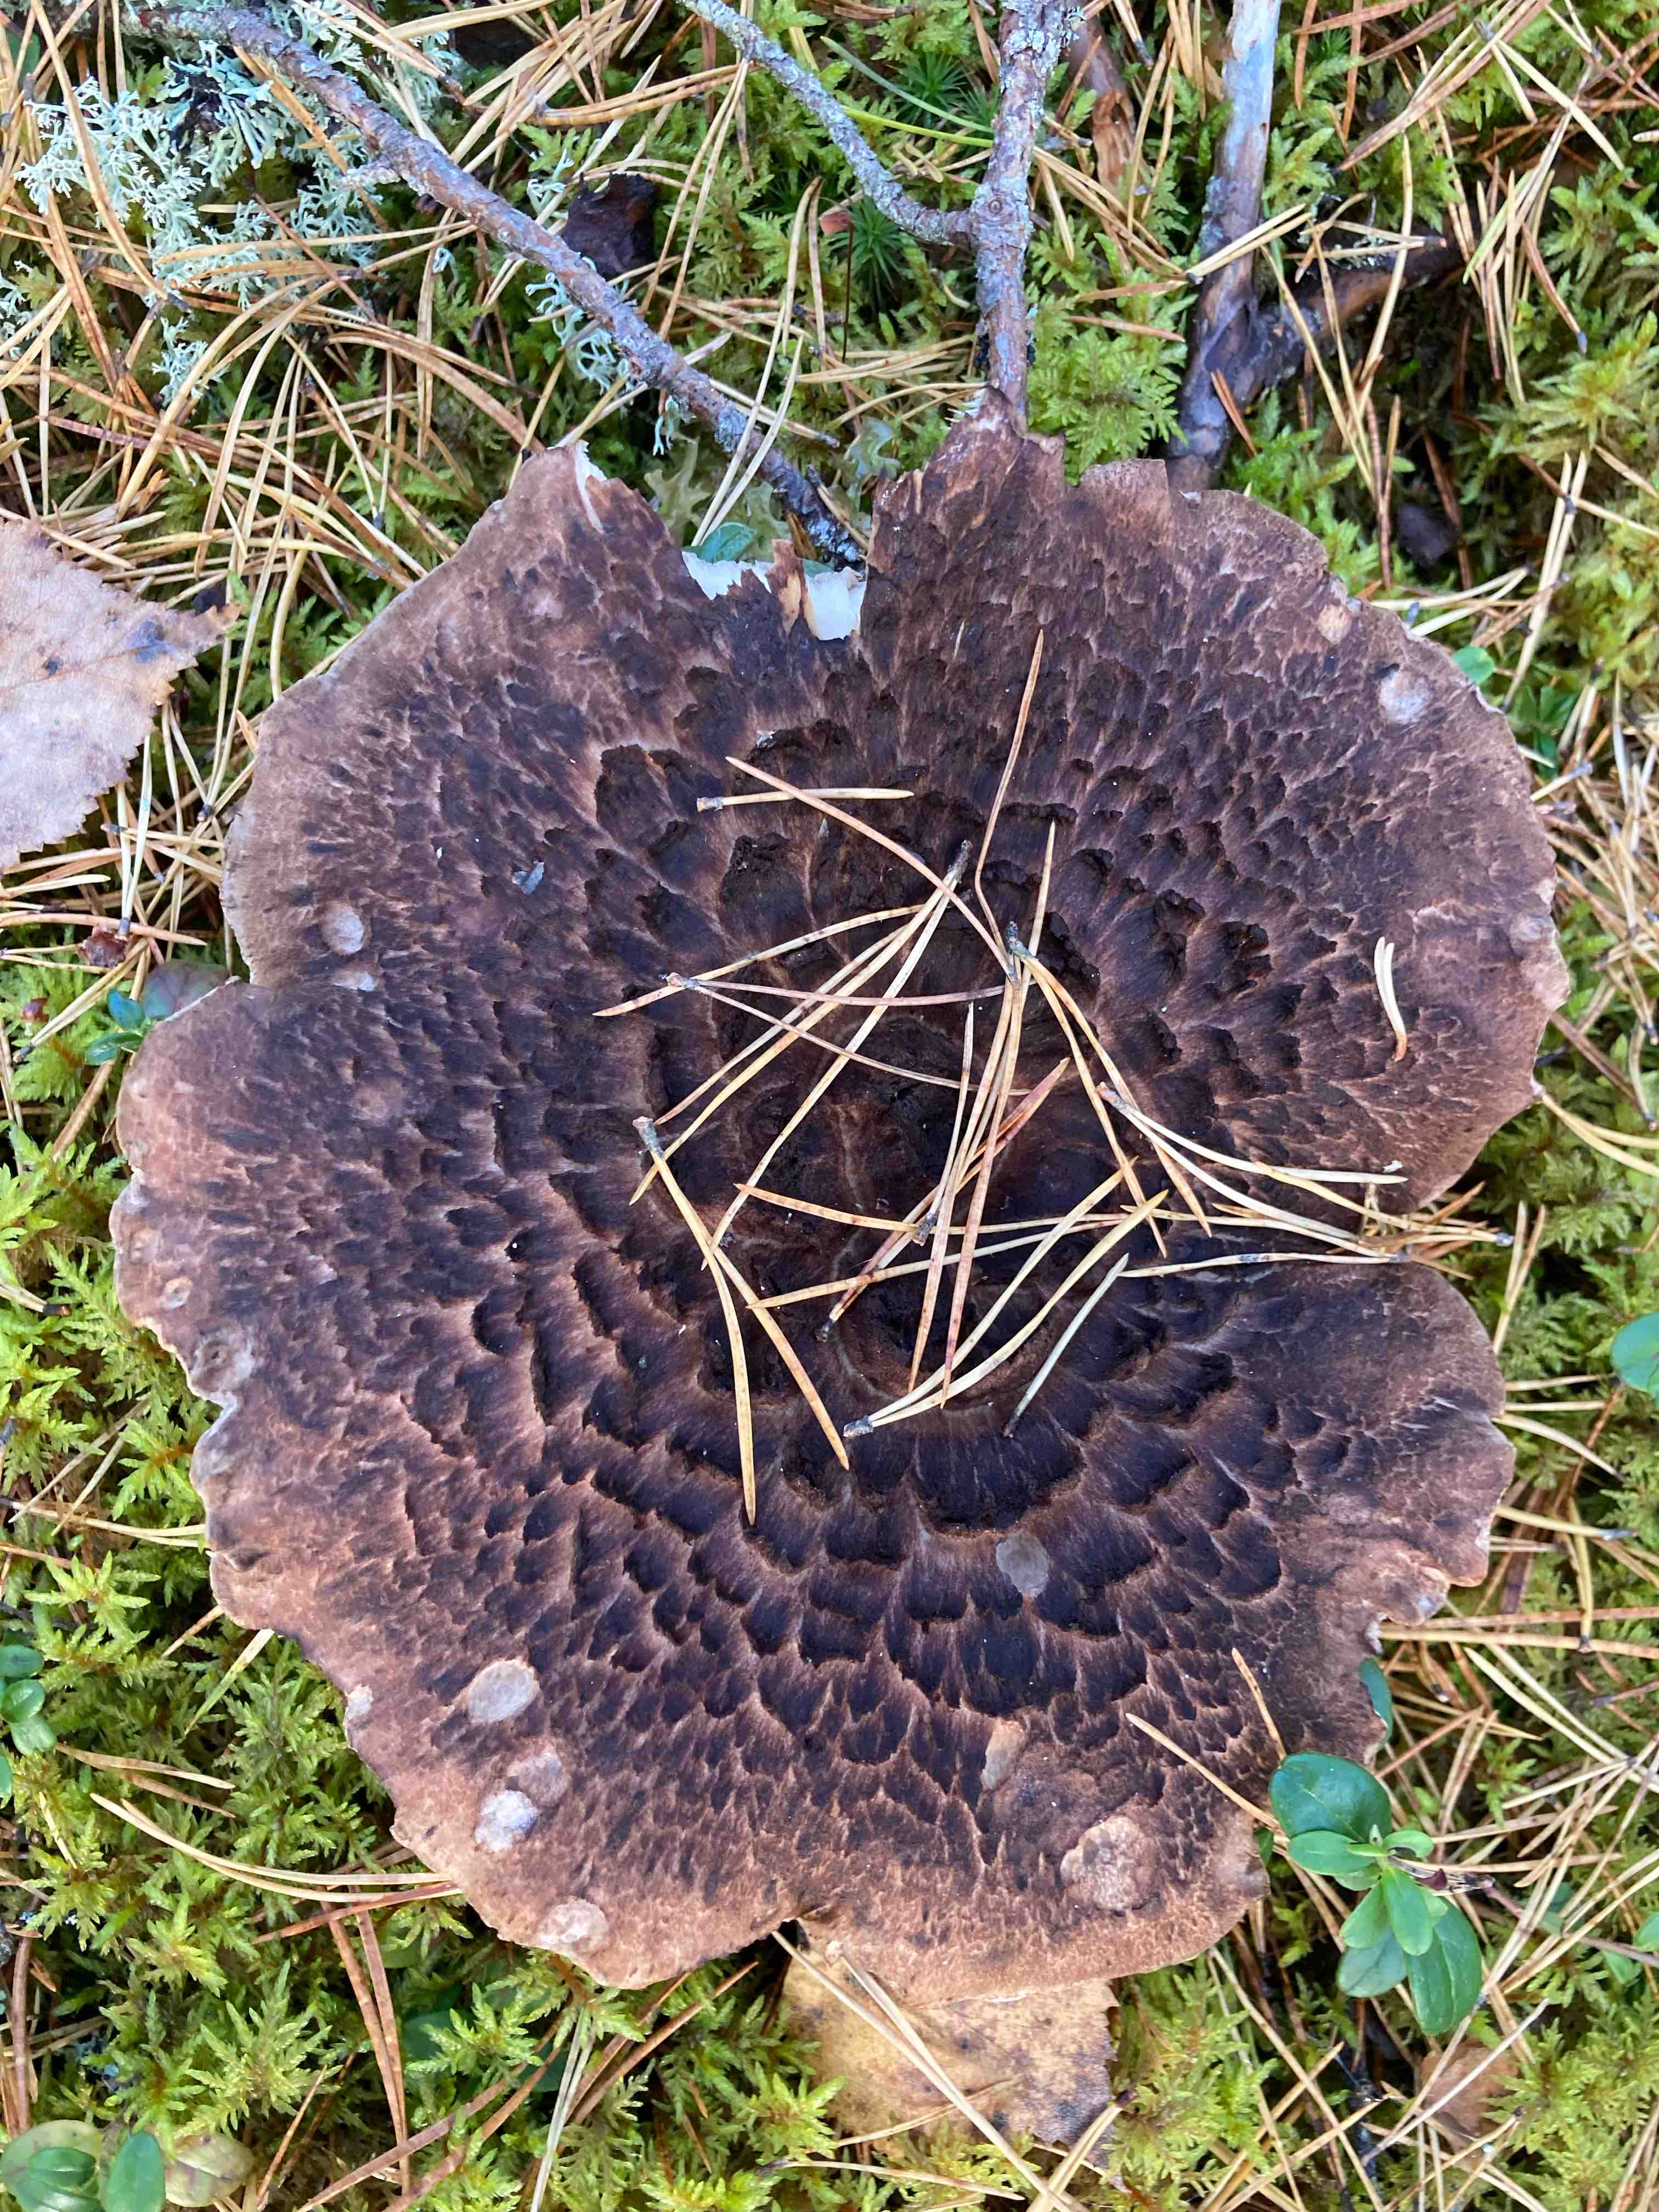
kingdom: Fungi
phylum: Basidiomycota
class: Agaricomycetes
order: Thelephorales
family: Bankeraceae
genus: Sarcodon
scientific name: Sarcodon squamosus
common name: småskællet kødpigsvamp
